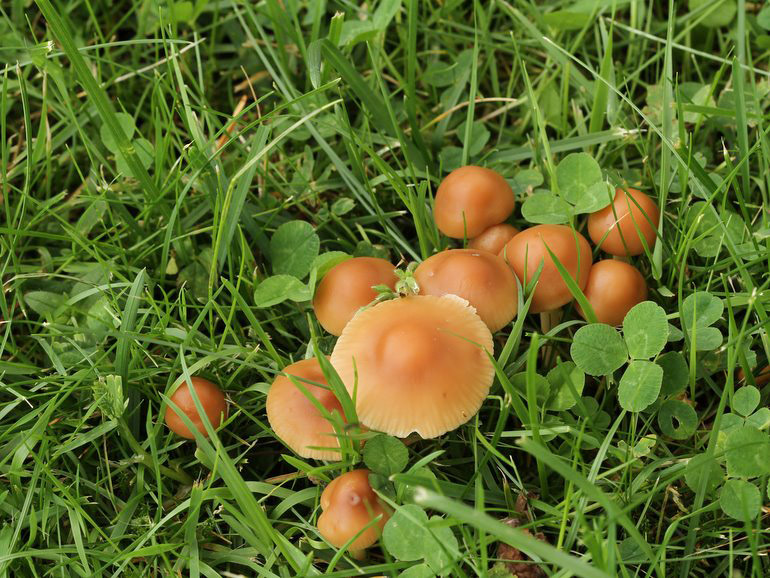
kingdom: Fungi
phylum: Basidiomycota
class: Agaricomycetes
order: Agaricales
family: Marasmiaceae
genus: Marasmius
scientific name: Marasmius oreades
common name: elledans-bruskhat
